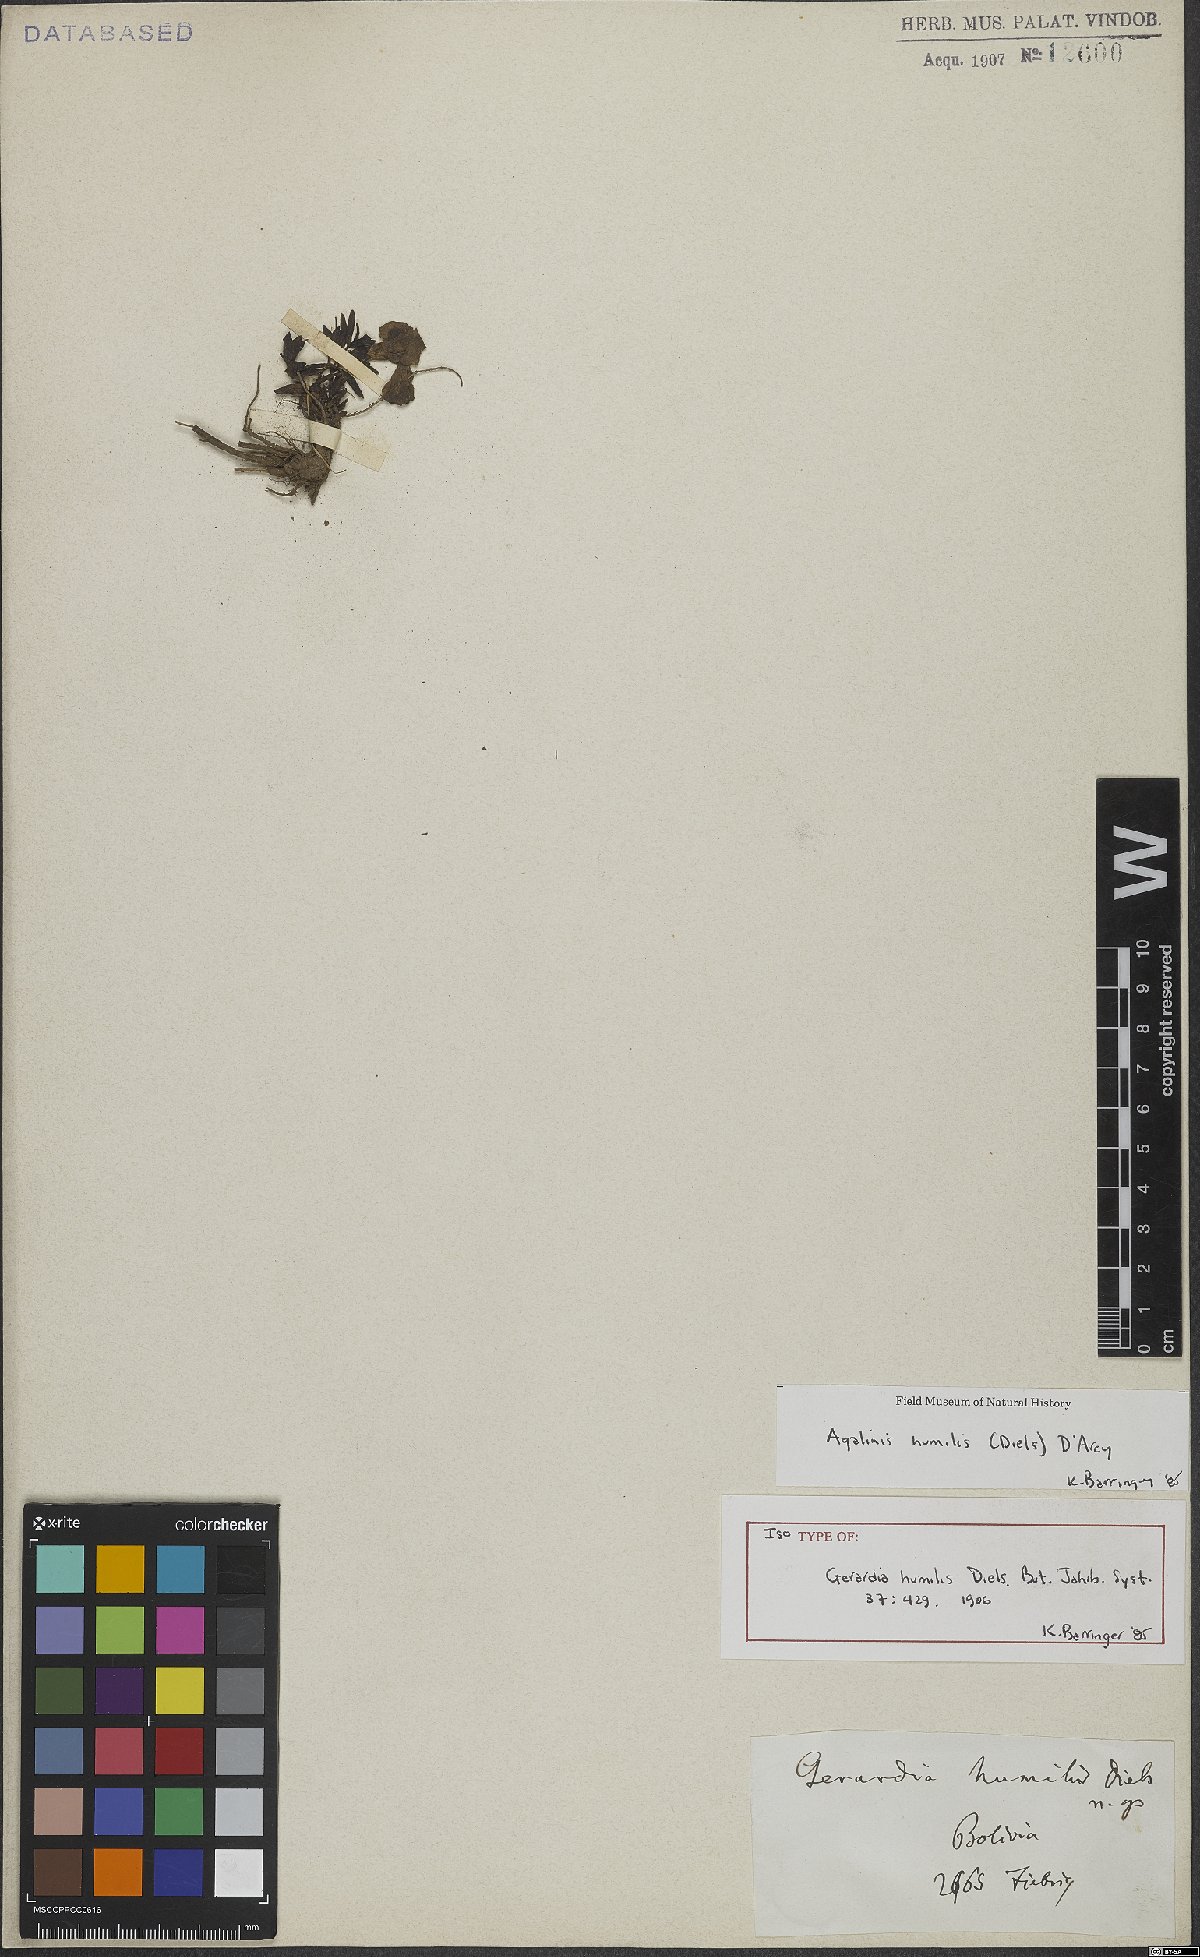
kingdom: Plantae
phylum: Tracheophyta
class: Magnoliopsida
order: Lamiales
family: Scrophulariaceae
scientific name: Scrophulariaceae
